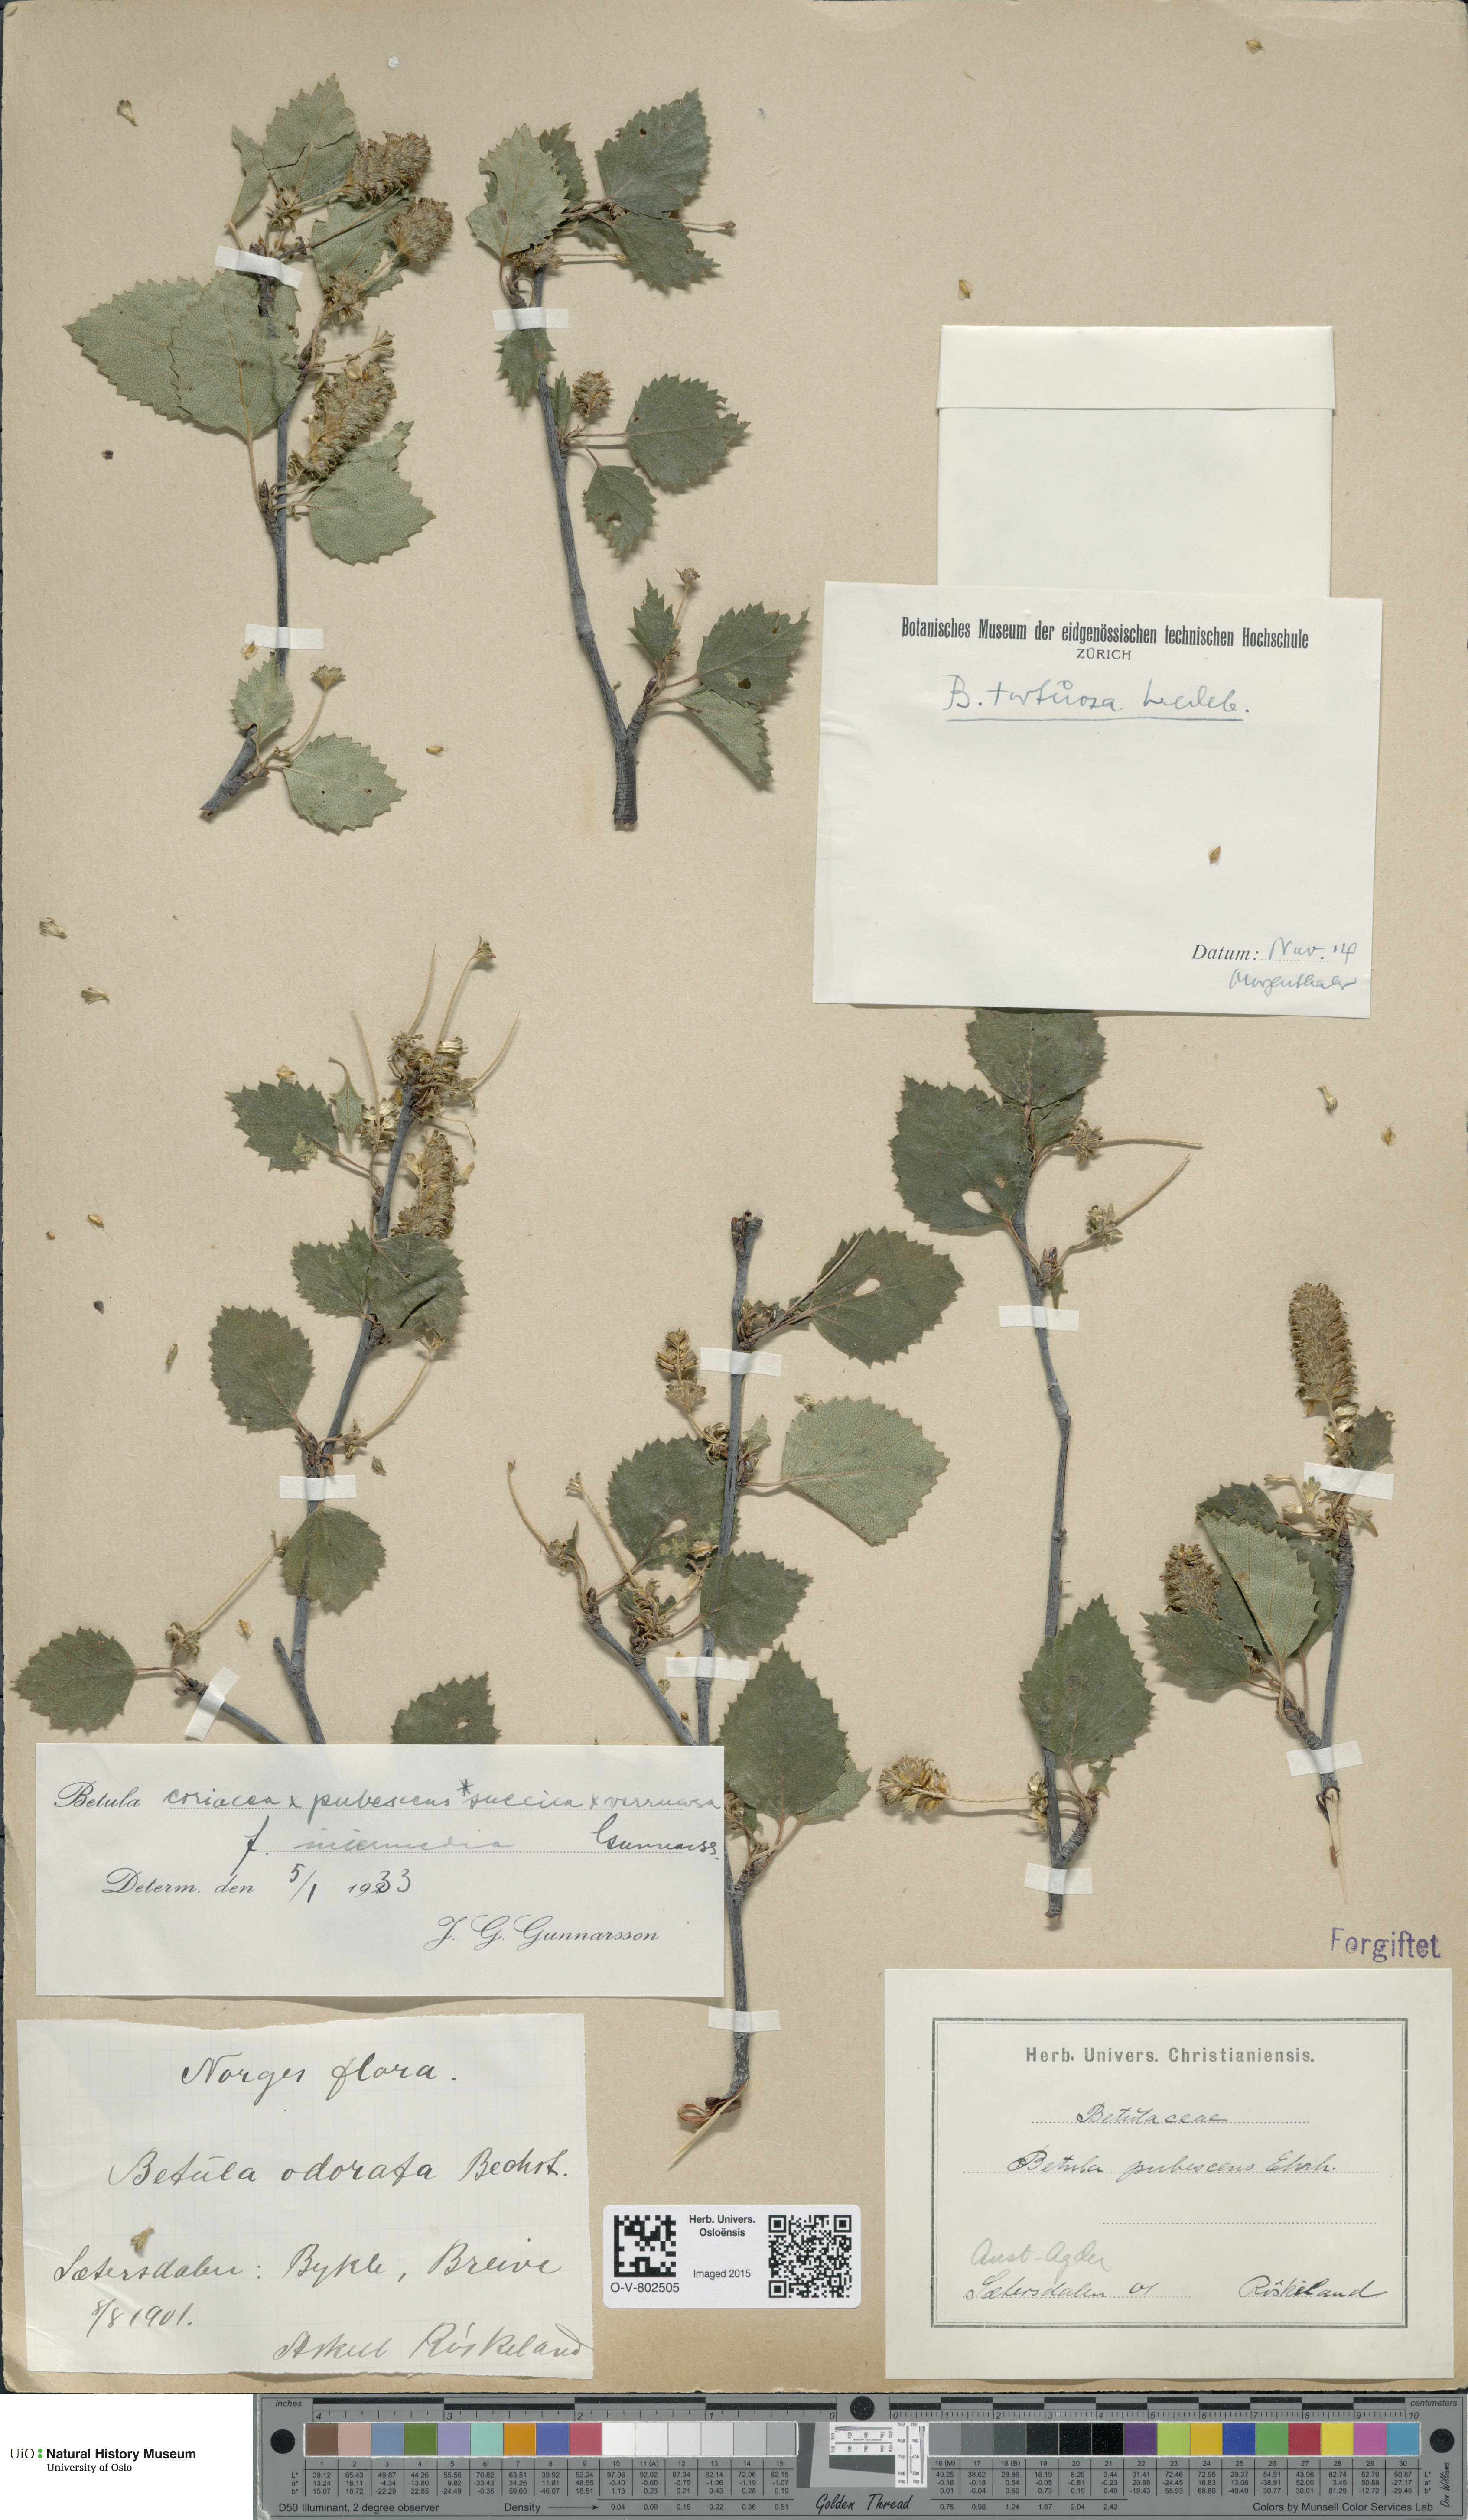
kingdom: Plantae
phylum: Tracheophyta
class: Magnoliopsida
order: Fagales
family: Betulaceae
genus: Betula
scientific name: Betula pubescens
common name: Downy birch
